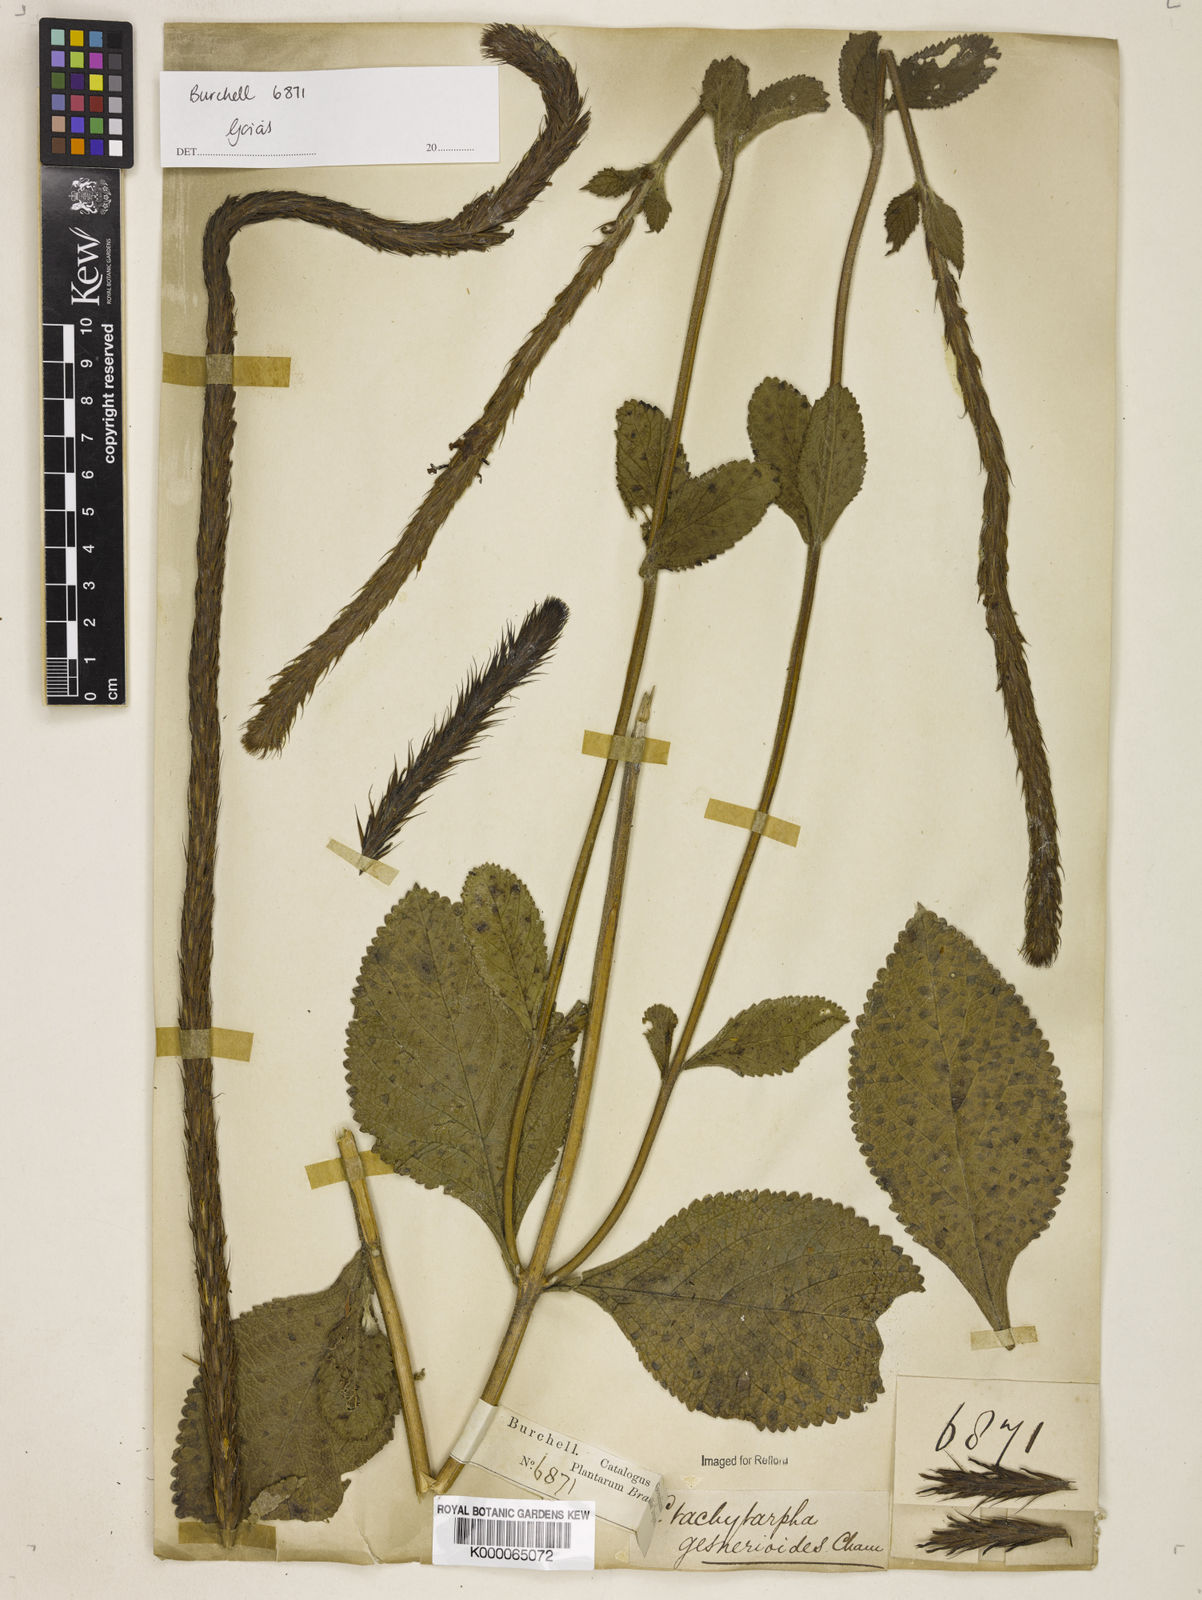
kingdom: Plantae
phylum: Tracheophyta
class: Magnoliopsida
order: Lamiales
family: Verbenaceae
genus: Stachytarpheta
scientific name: Stachytarpheta gesnerioides
